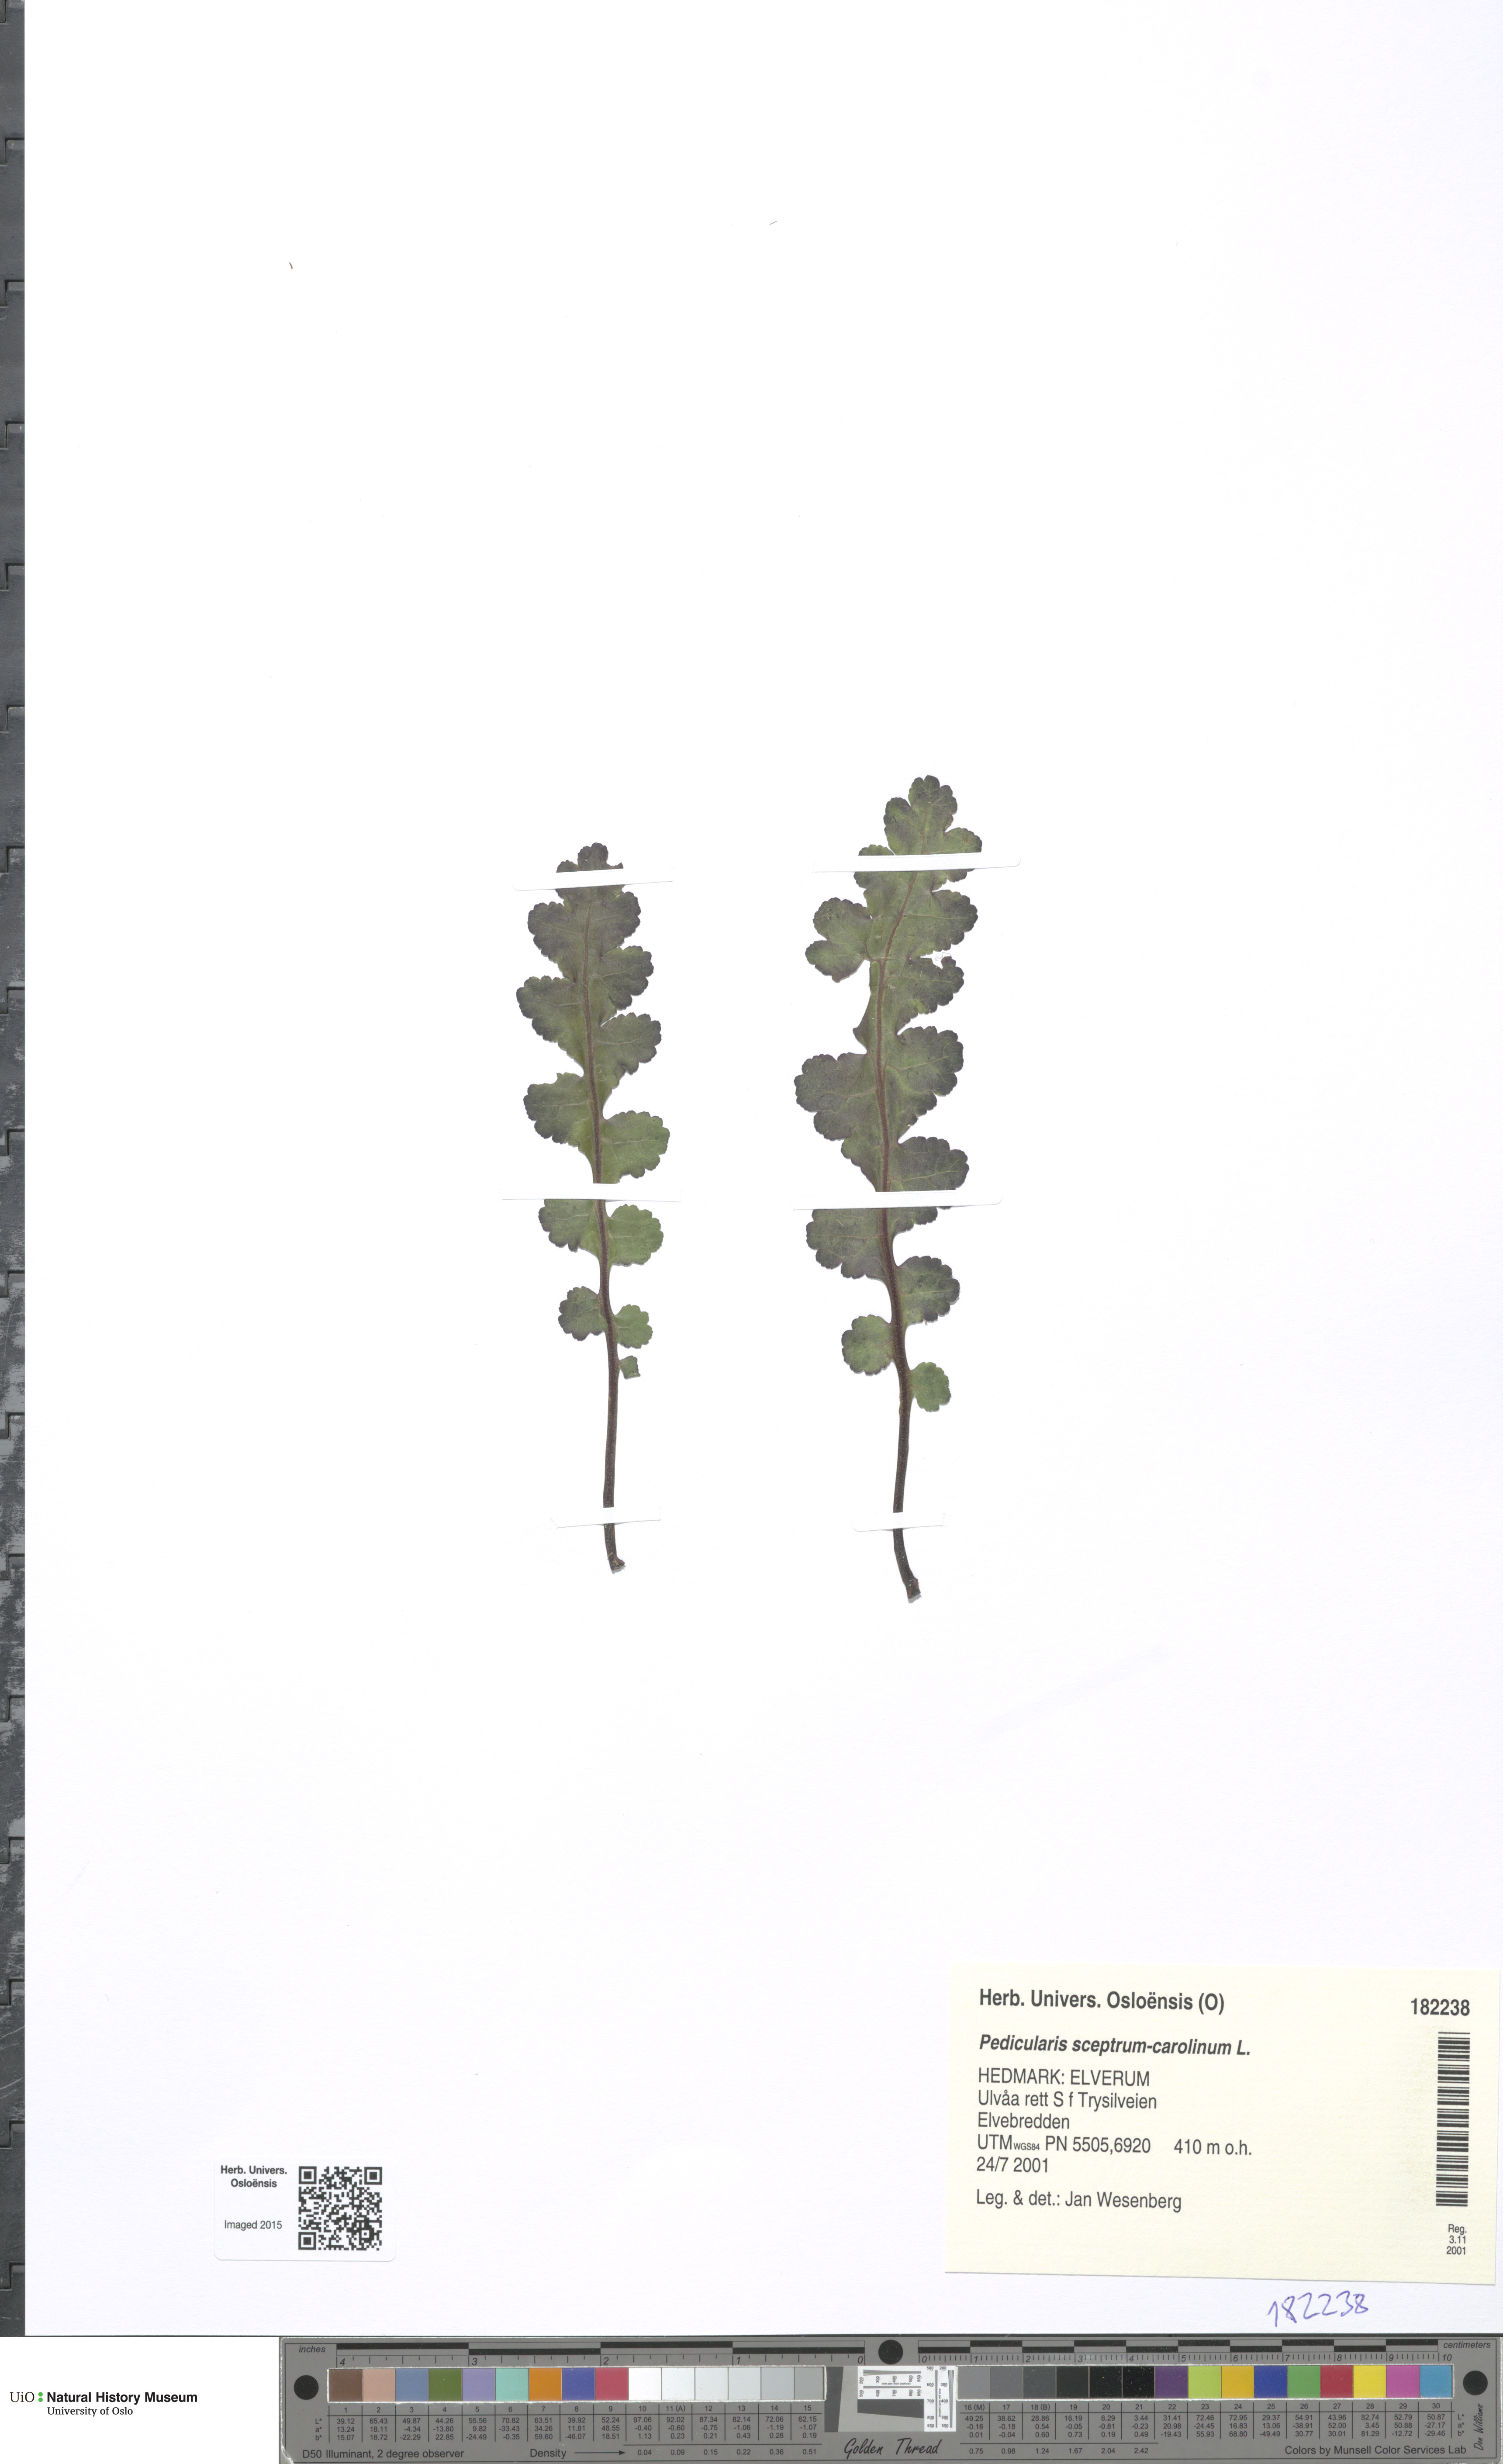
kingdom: Plantae
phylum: Tracheophyta
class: Magnoliopsida
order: Lamiales
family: Orobanchaceae
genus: Pedicularis
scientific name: Pedicularis sceptrum-carolinum
